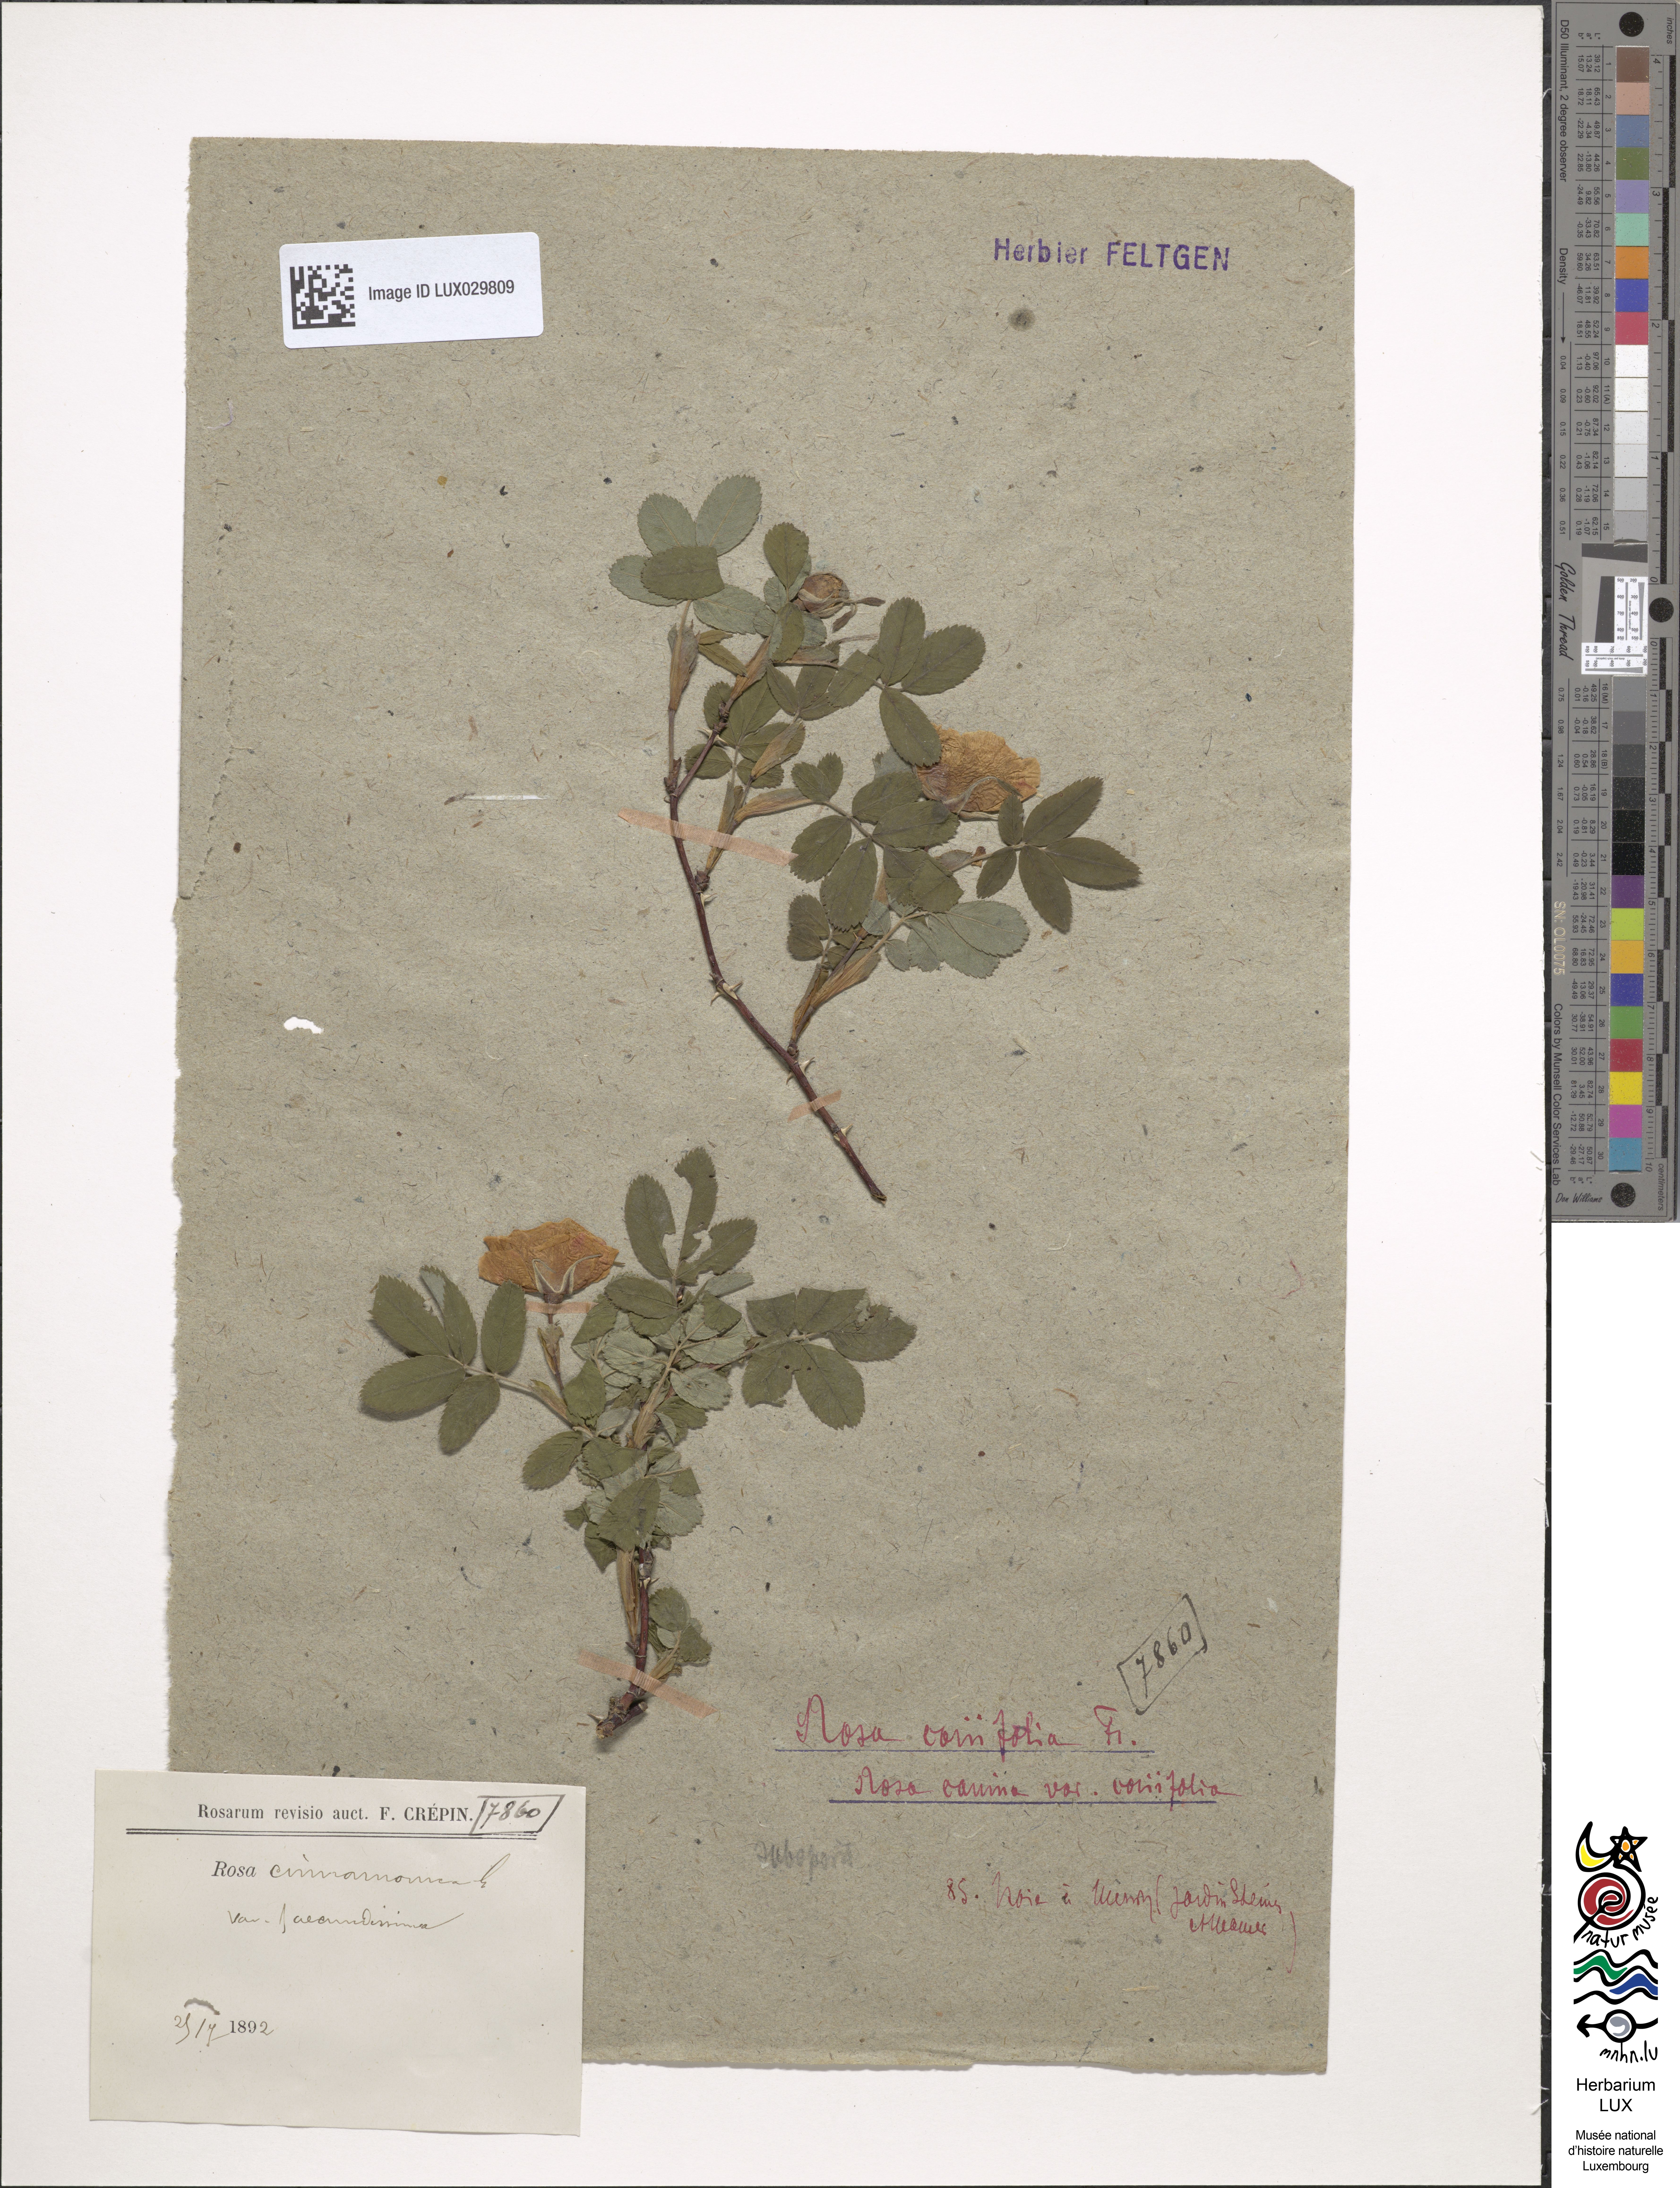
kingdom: Plantae
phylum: Tracheophyta
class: Magnoliopsida
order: Rosales
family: Rosaceae
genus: Rosa
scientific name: Rosa majalis
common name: Cinnamon rose
